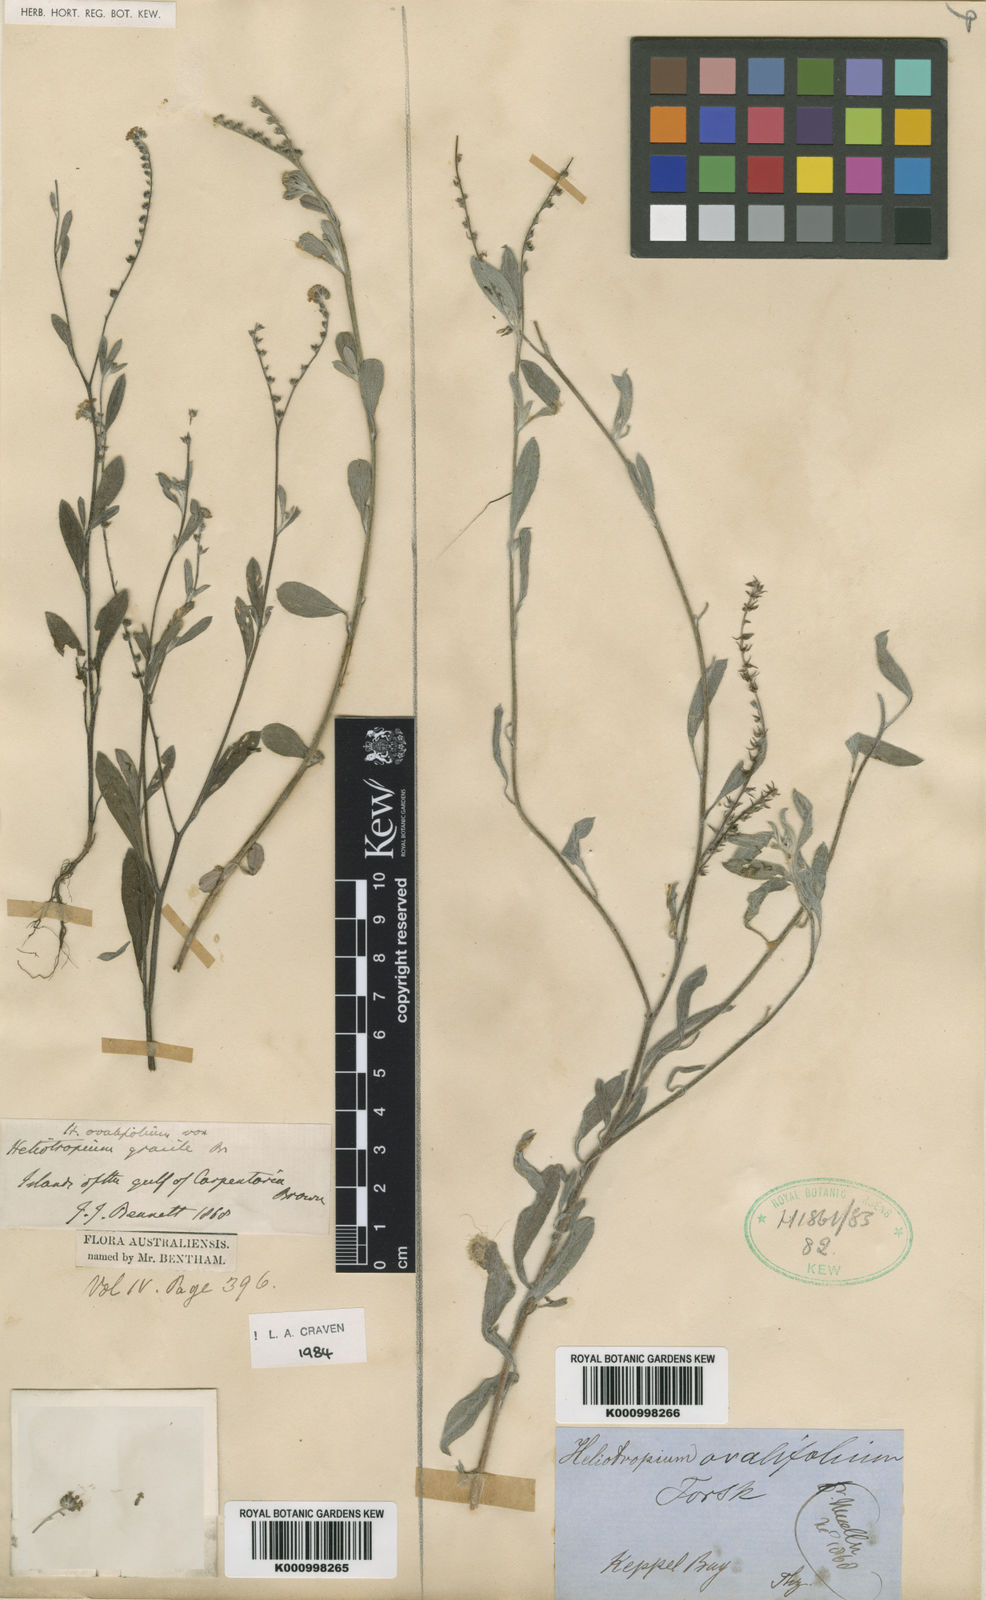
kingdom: Plantae
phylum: Tracheophyta
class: Magnoliopsida
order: Boraginales
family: Heliotropiaceae
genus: Euploca
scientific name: Euploca ovalifolia
